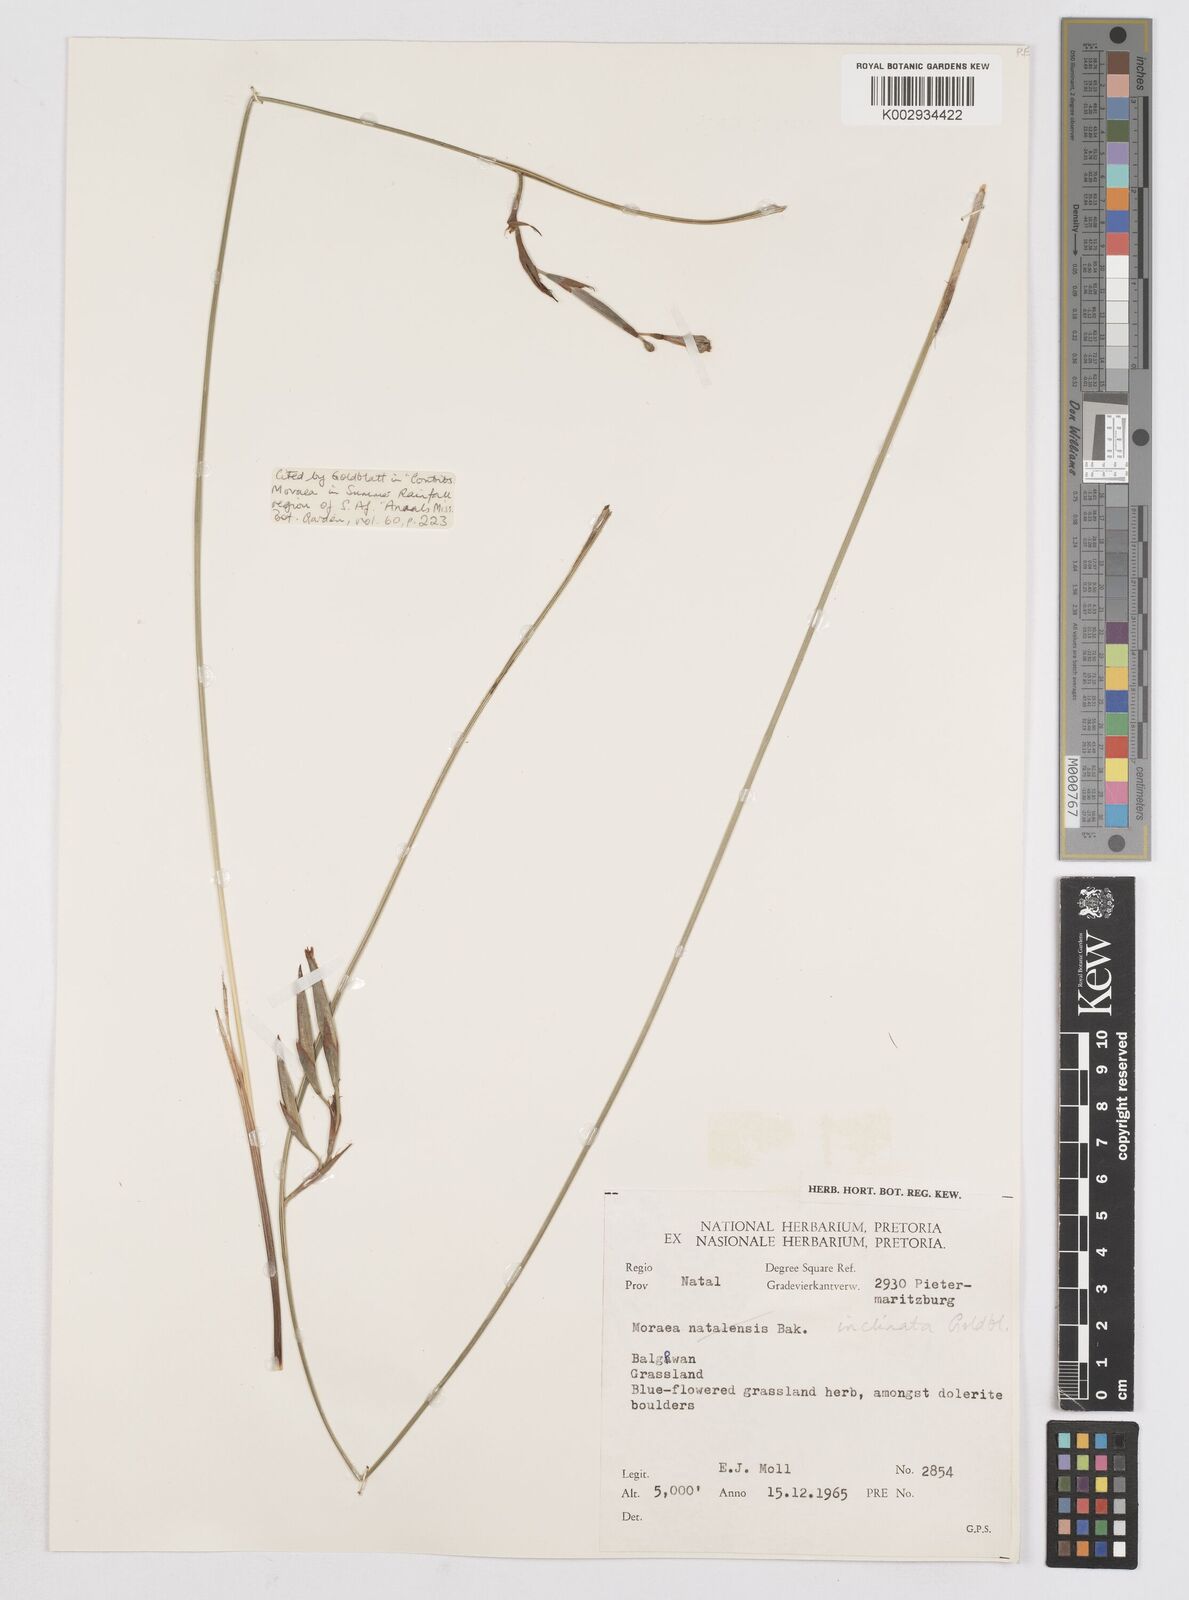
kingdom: Plantae
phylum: Tracheophyta
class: Liliopsida
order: Asparagales
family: Iridaceae
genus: Moraea
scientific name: Moraea inclinata
